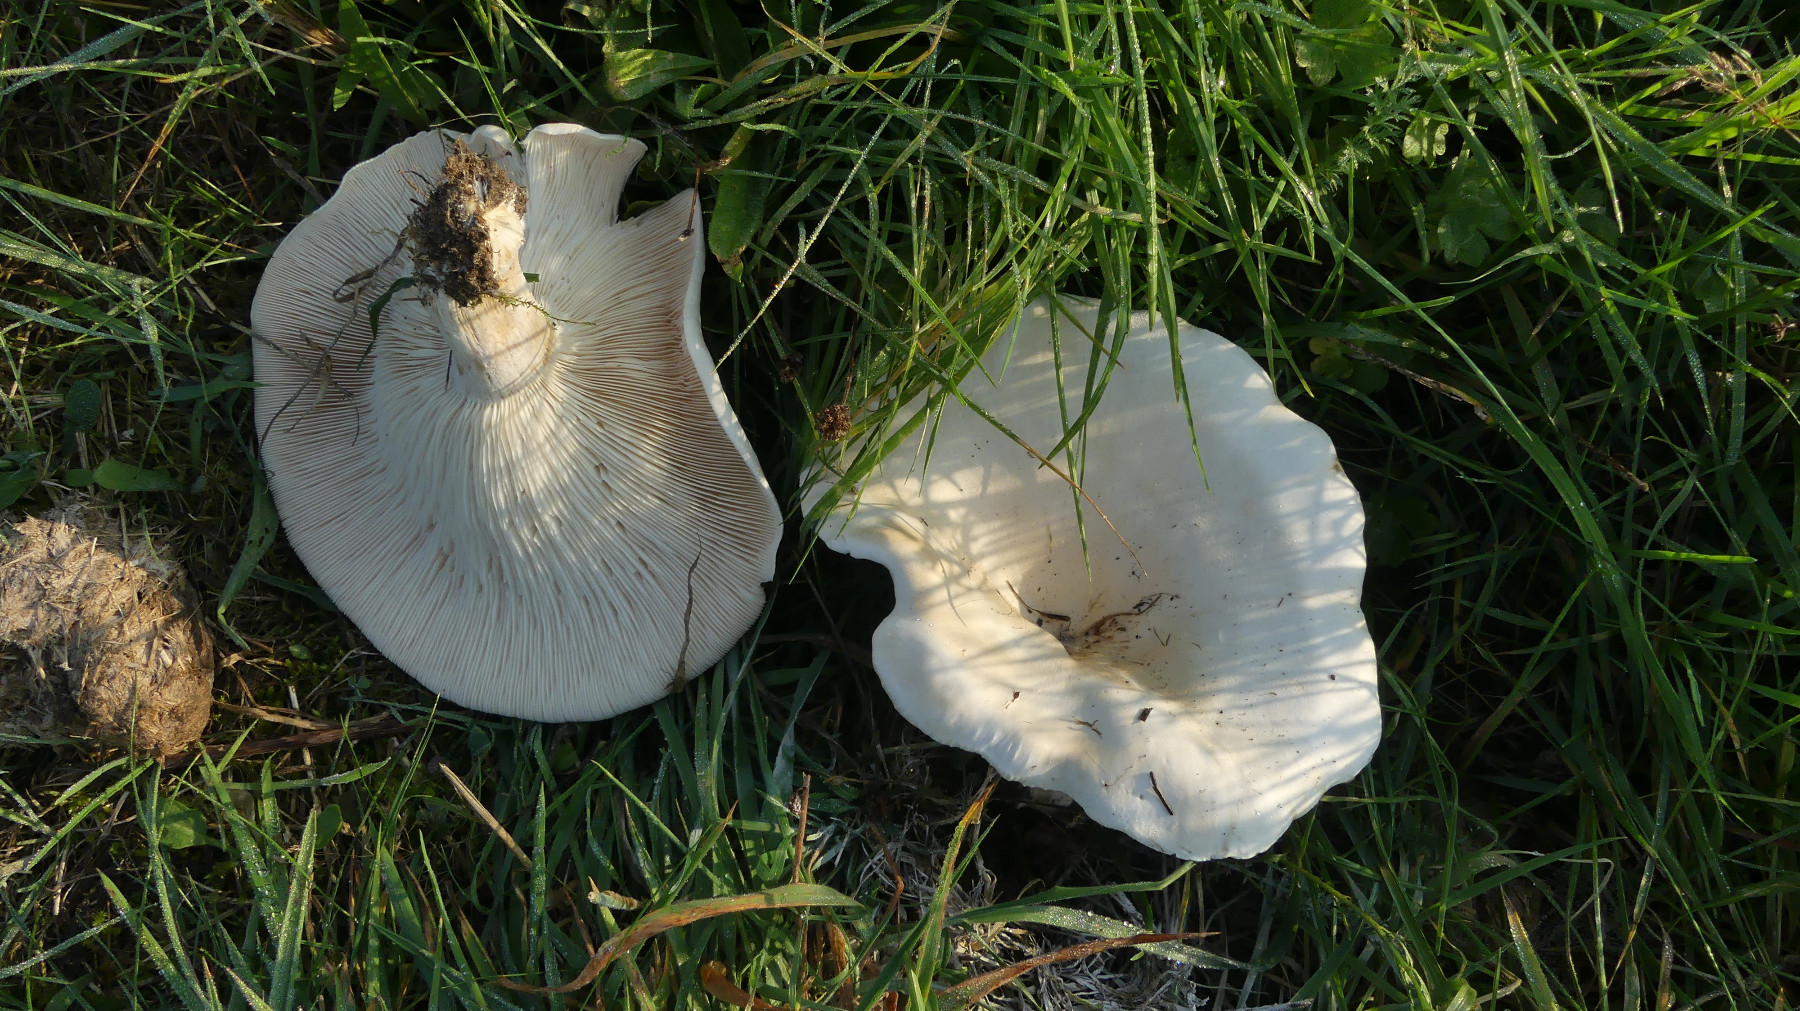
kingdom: Fungi
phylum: Basidiomycota
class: Agaricomycetes
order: Agaricales
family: Tricholomataceae
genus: Aspropaxillus
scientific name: Aspropaxillus giganteus
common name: kæmpe-tragtridderhat
